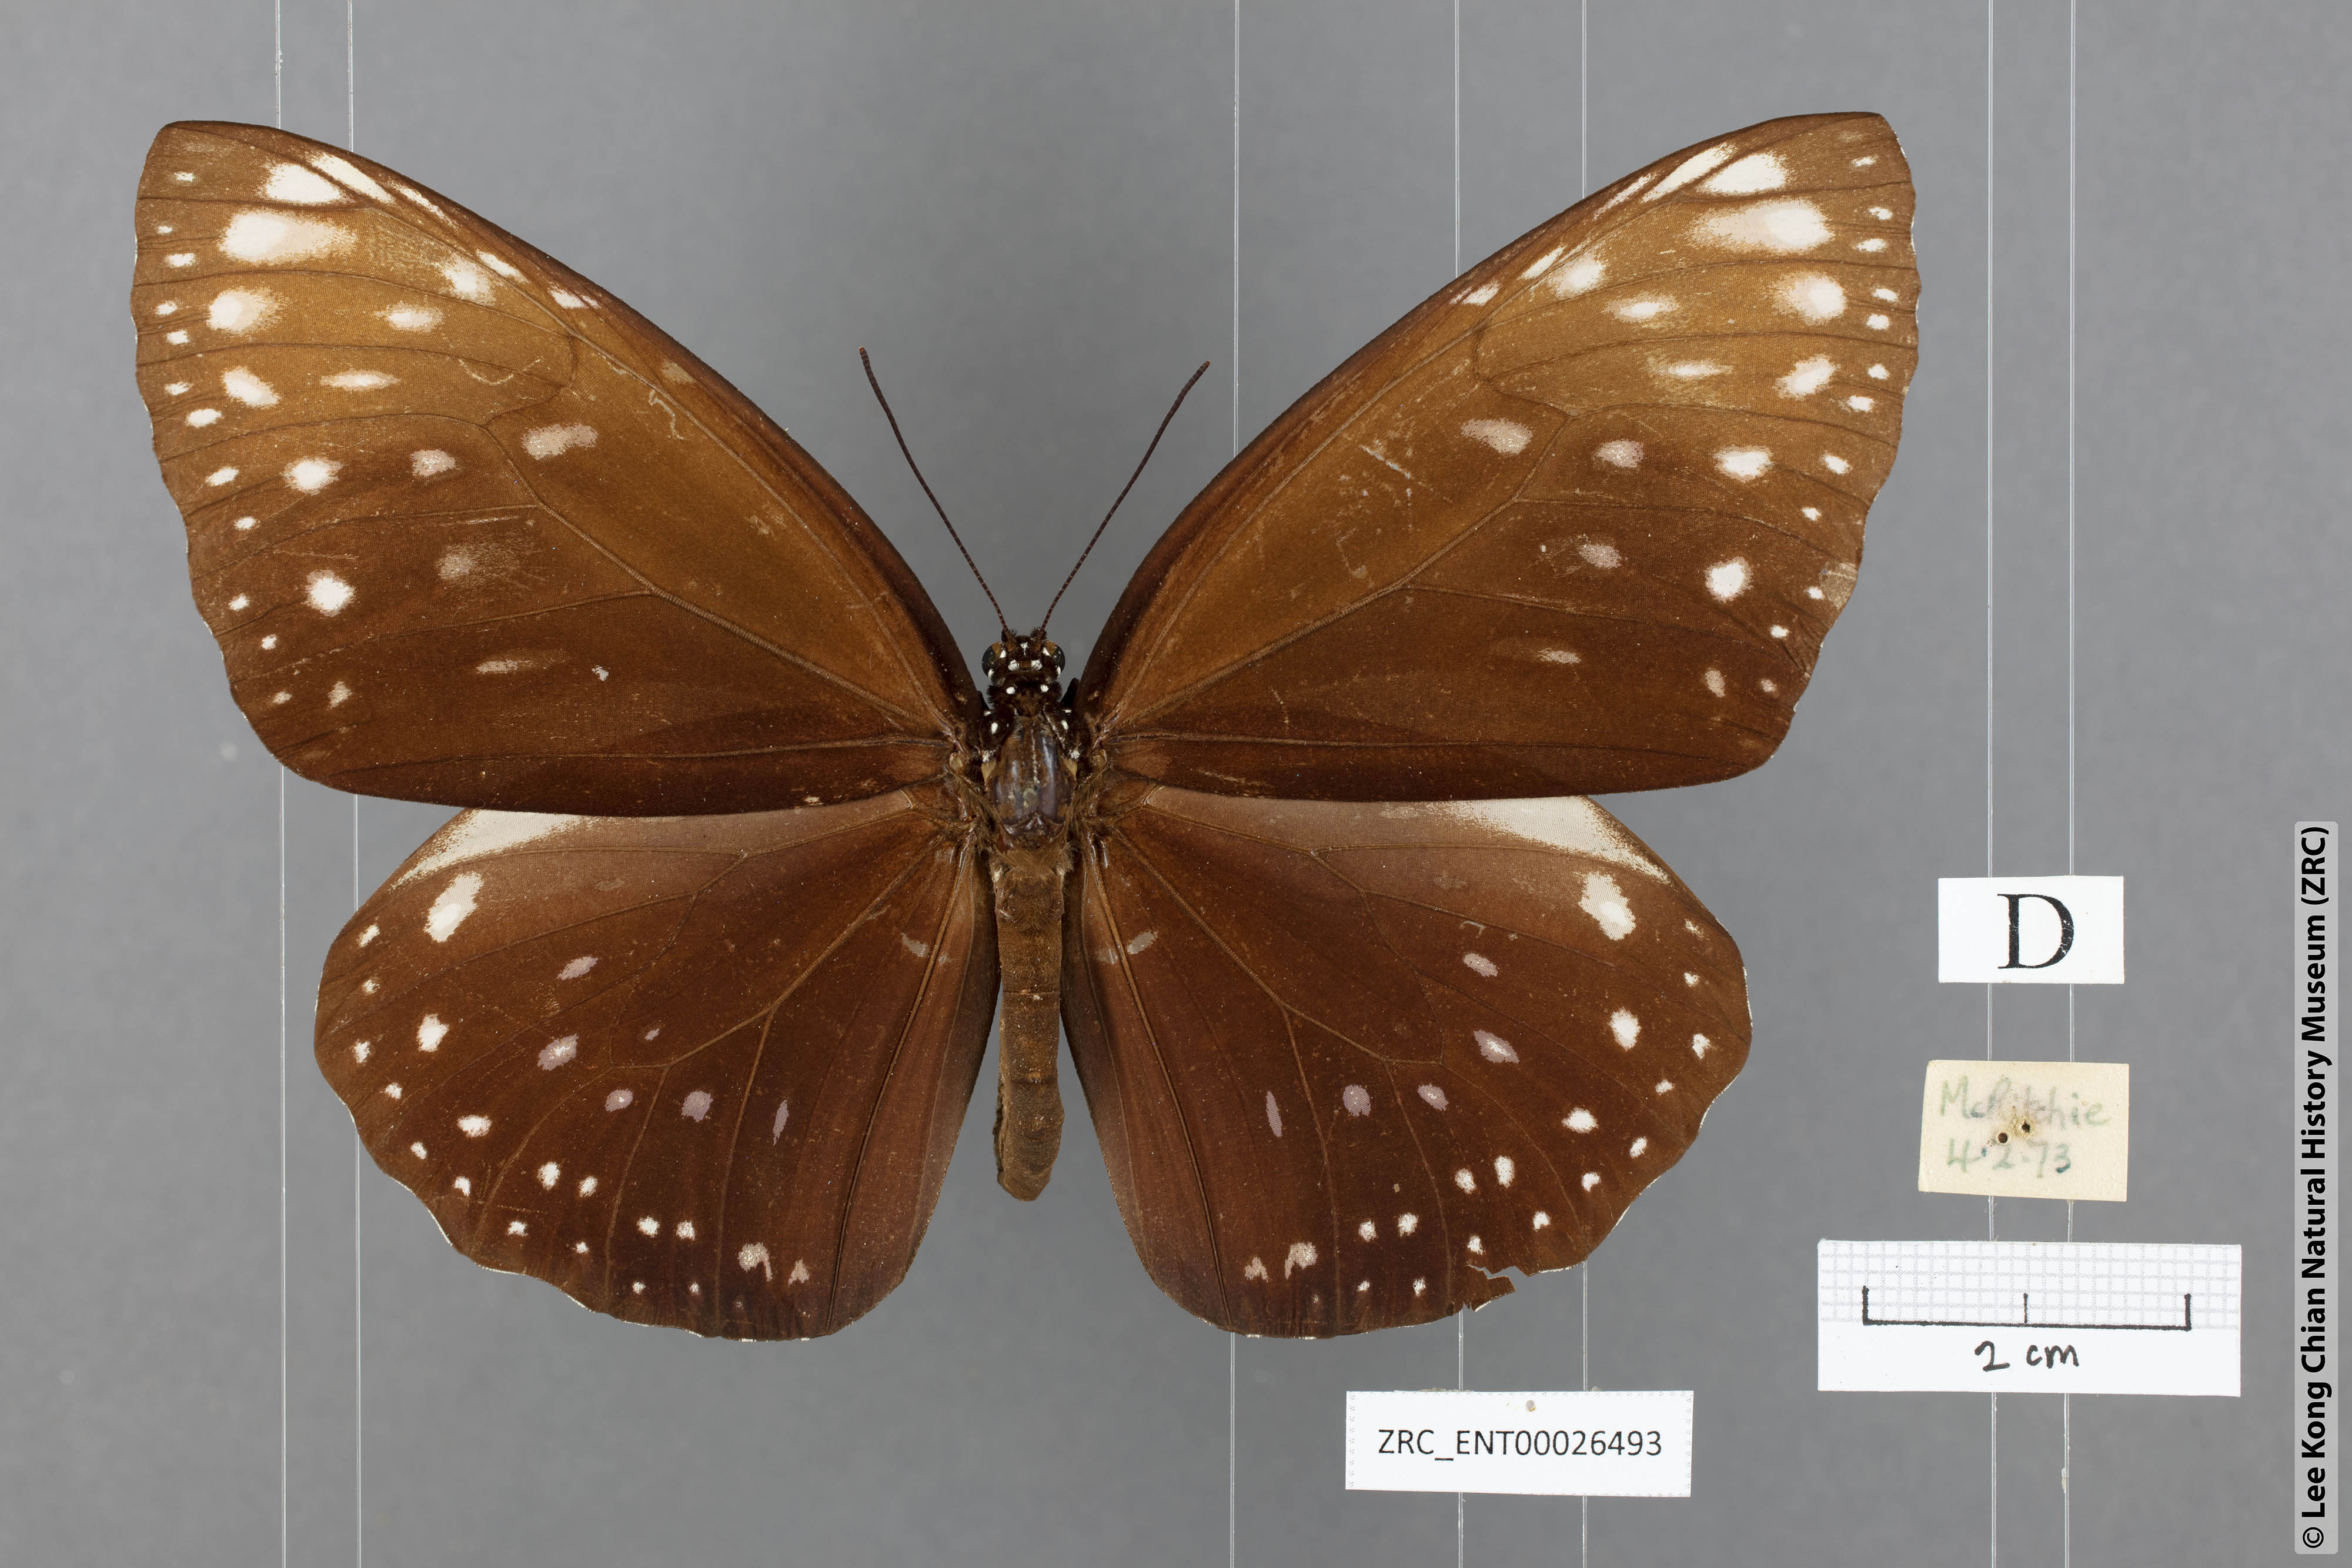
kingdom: Animalia
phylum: Arthropoda
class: Insecta
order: Lepidoptera
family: Nymphalidae
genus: Euploea
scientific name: Euploea phaenareta
